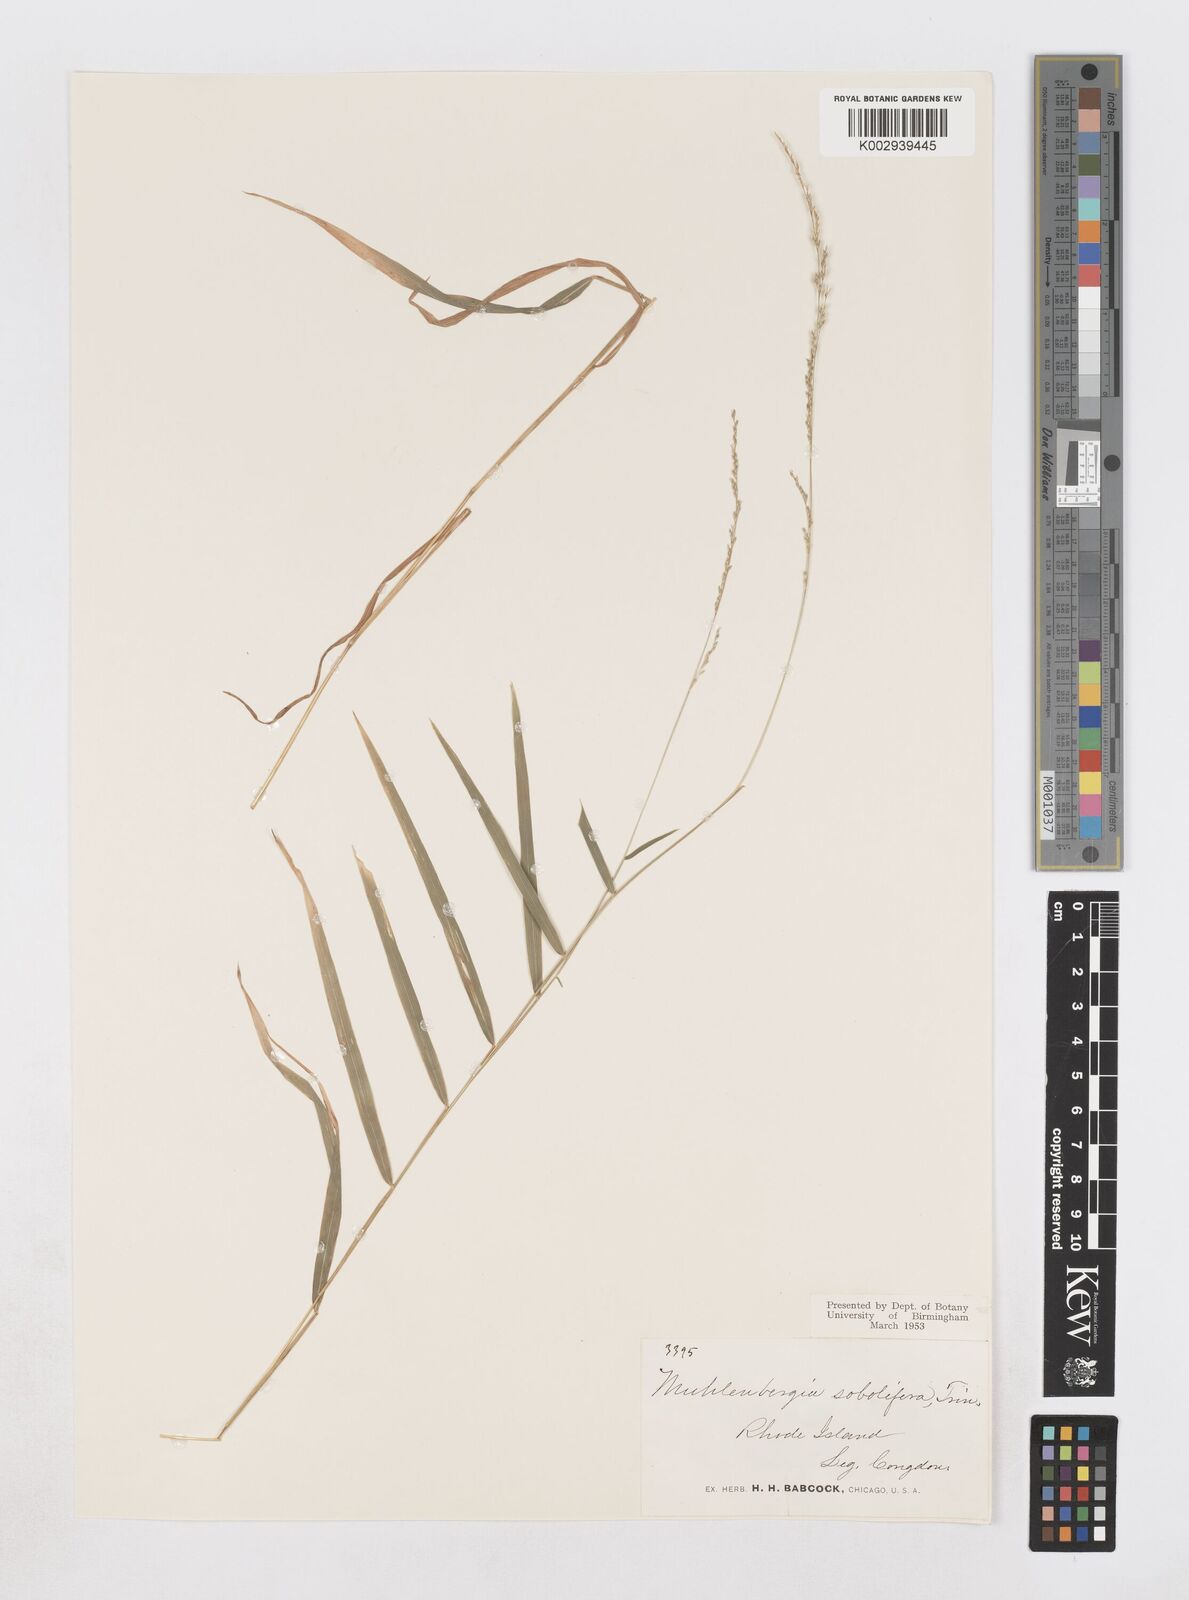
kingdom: Plantae
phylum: Tracheophyta
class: Liliopsida
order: Poales
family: Poaceae
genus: Muhlenbergia
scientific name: Muhlenbergia sobolifera
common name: Creeping muhly
